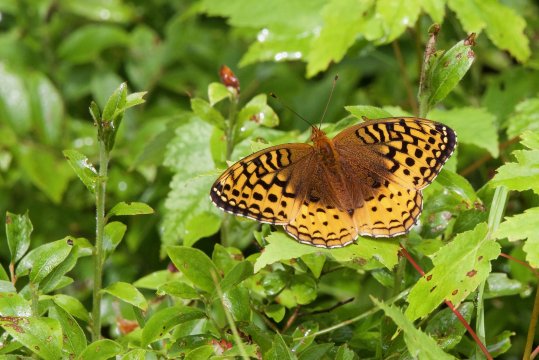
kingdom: Animalia
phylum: Arthropoda
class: Insecta
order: Lepidoptera
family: Nymphalidae
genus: Speyeria
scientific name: Speyeria cybele
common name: Great Spangled Fritillary
